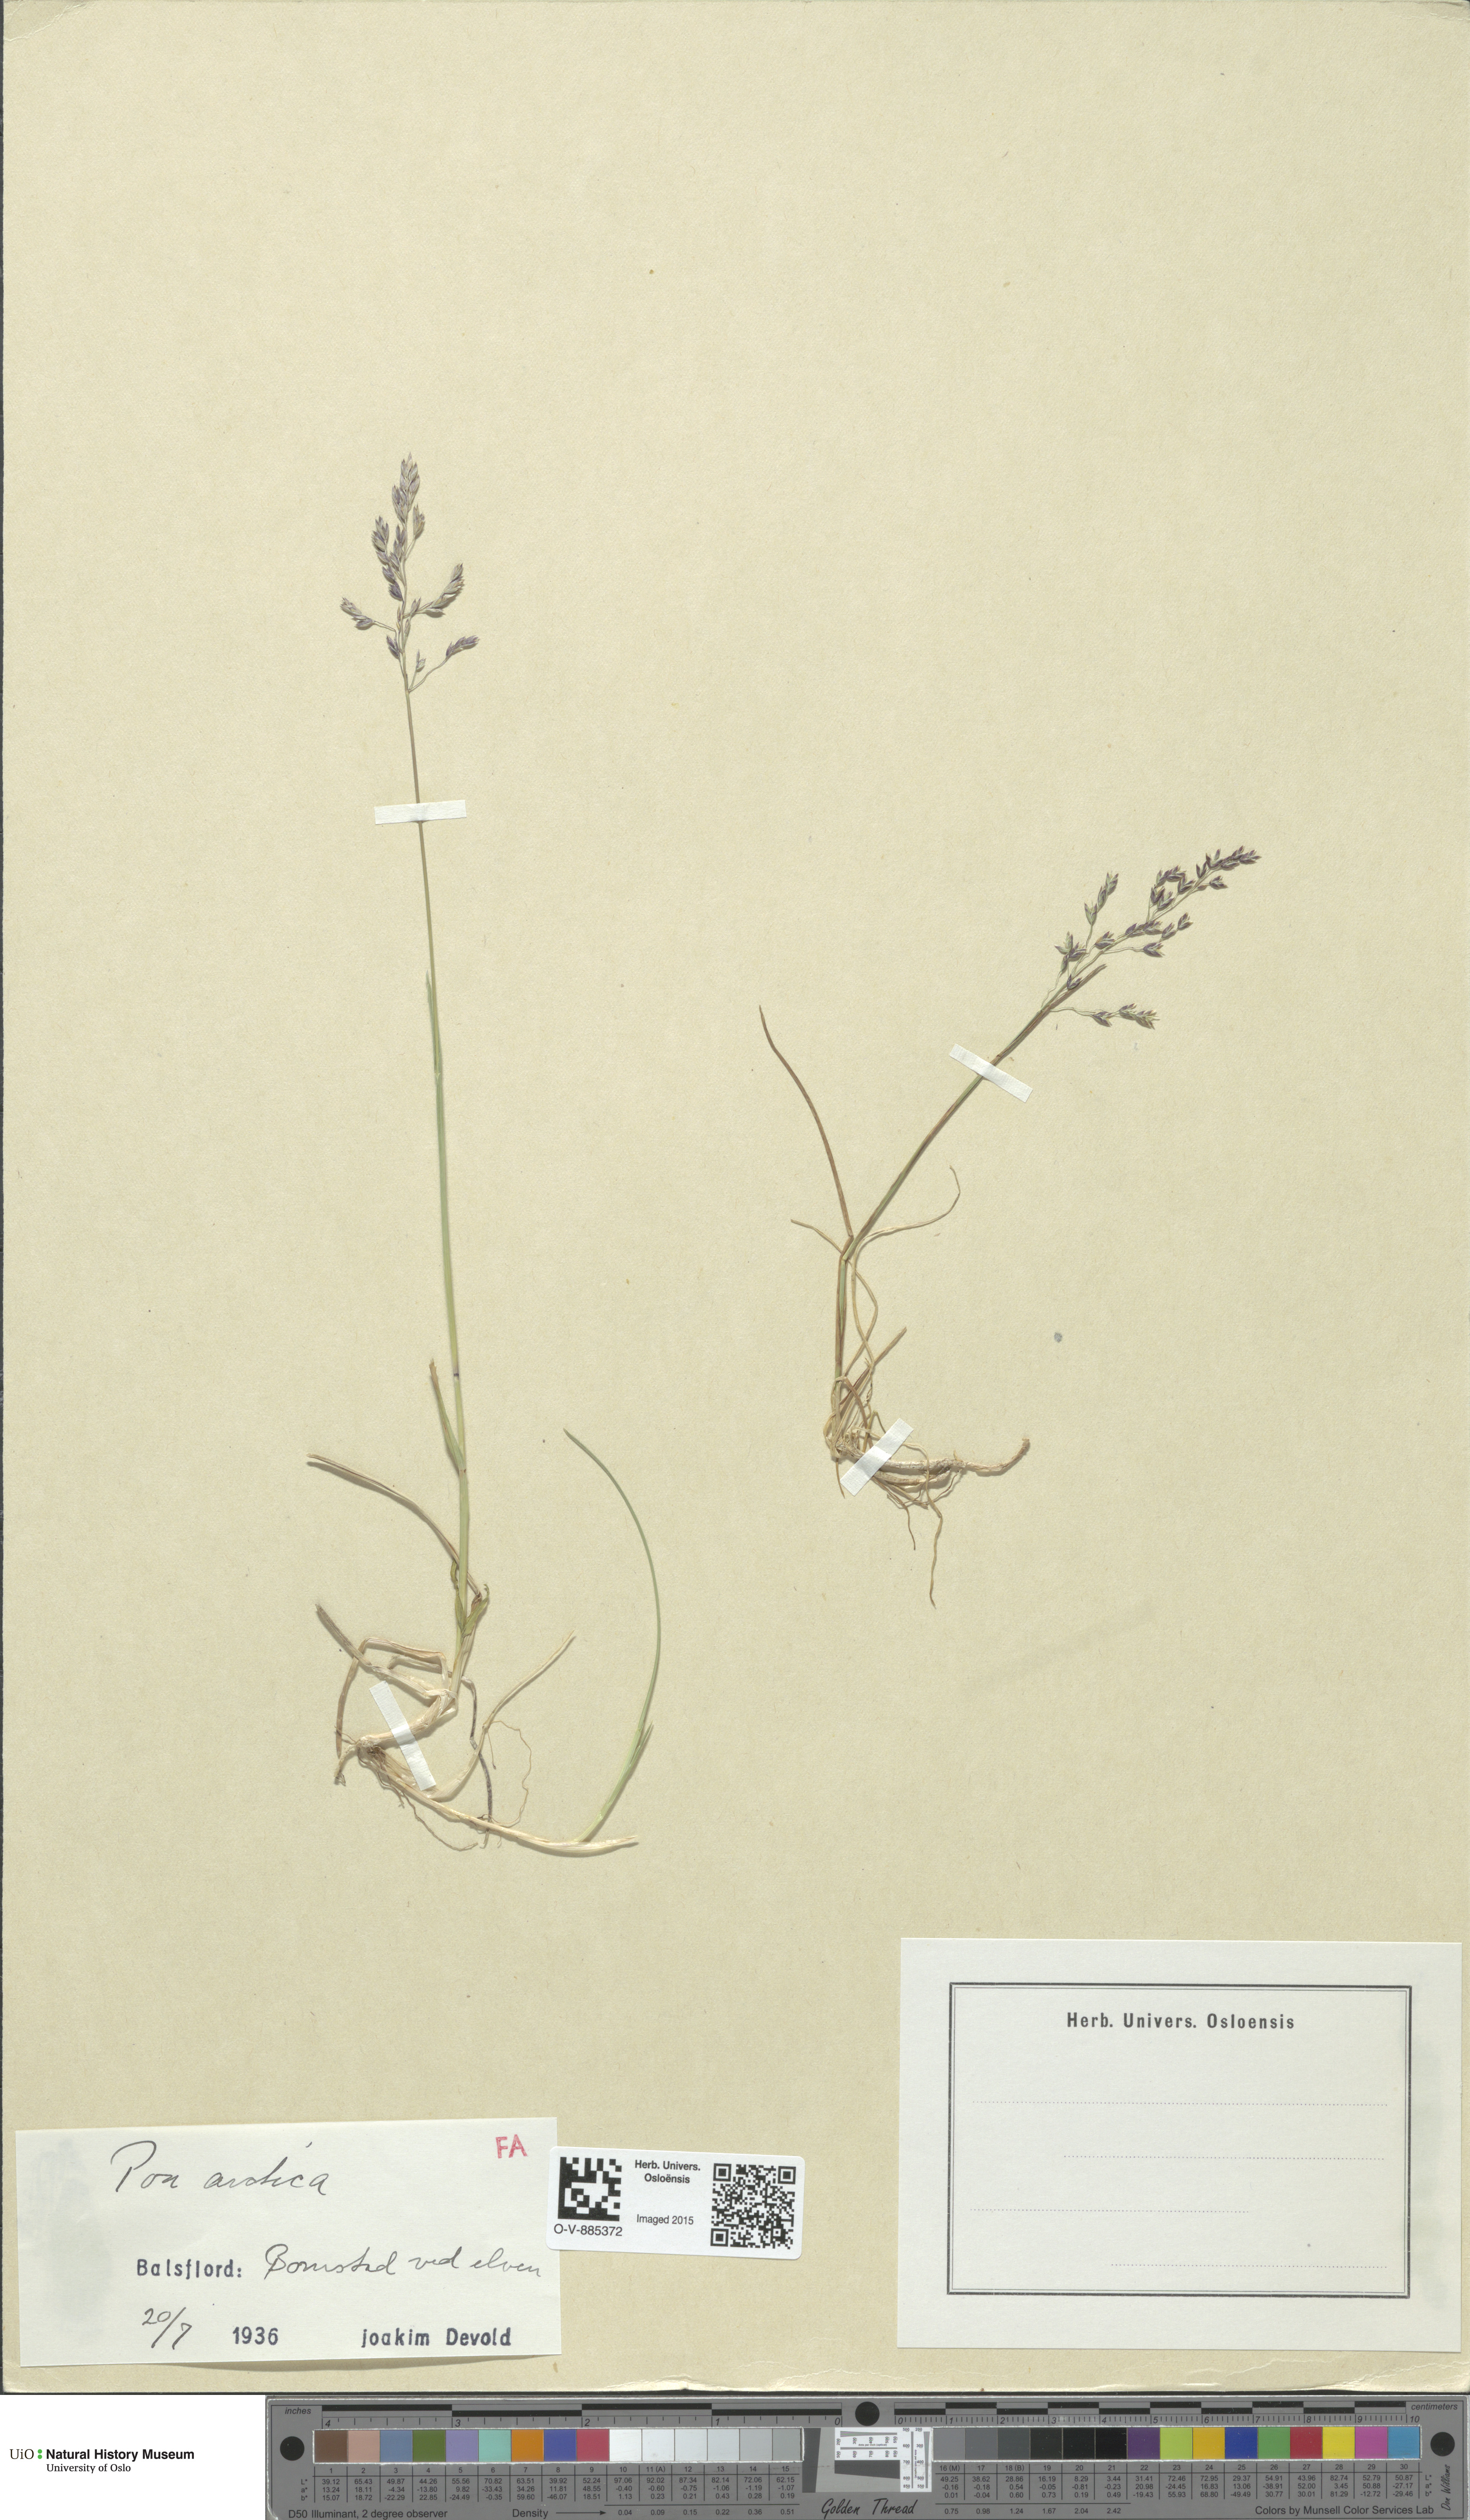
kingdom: Plantae
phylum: Tracheophyta
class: Liliopsida
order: Poales
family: Poaceae
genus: Poa
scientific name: Poa arctica
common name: Arctic bluegrass
